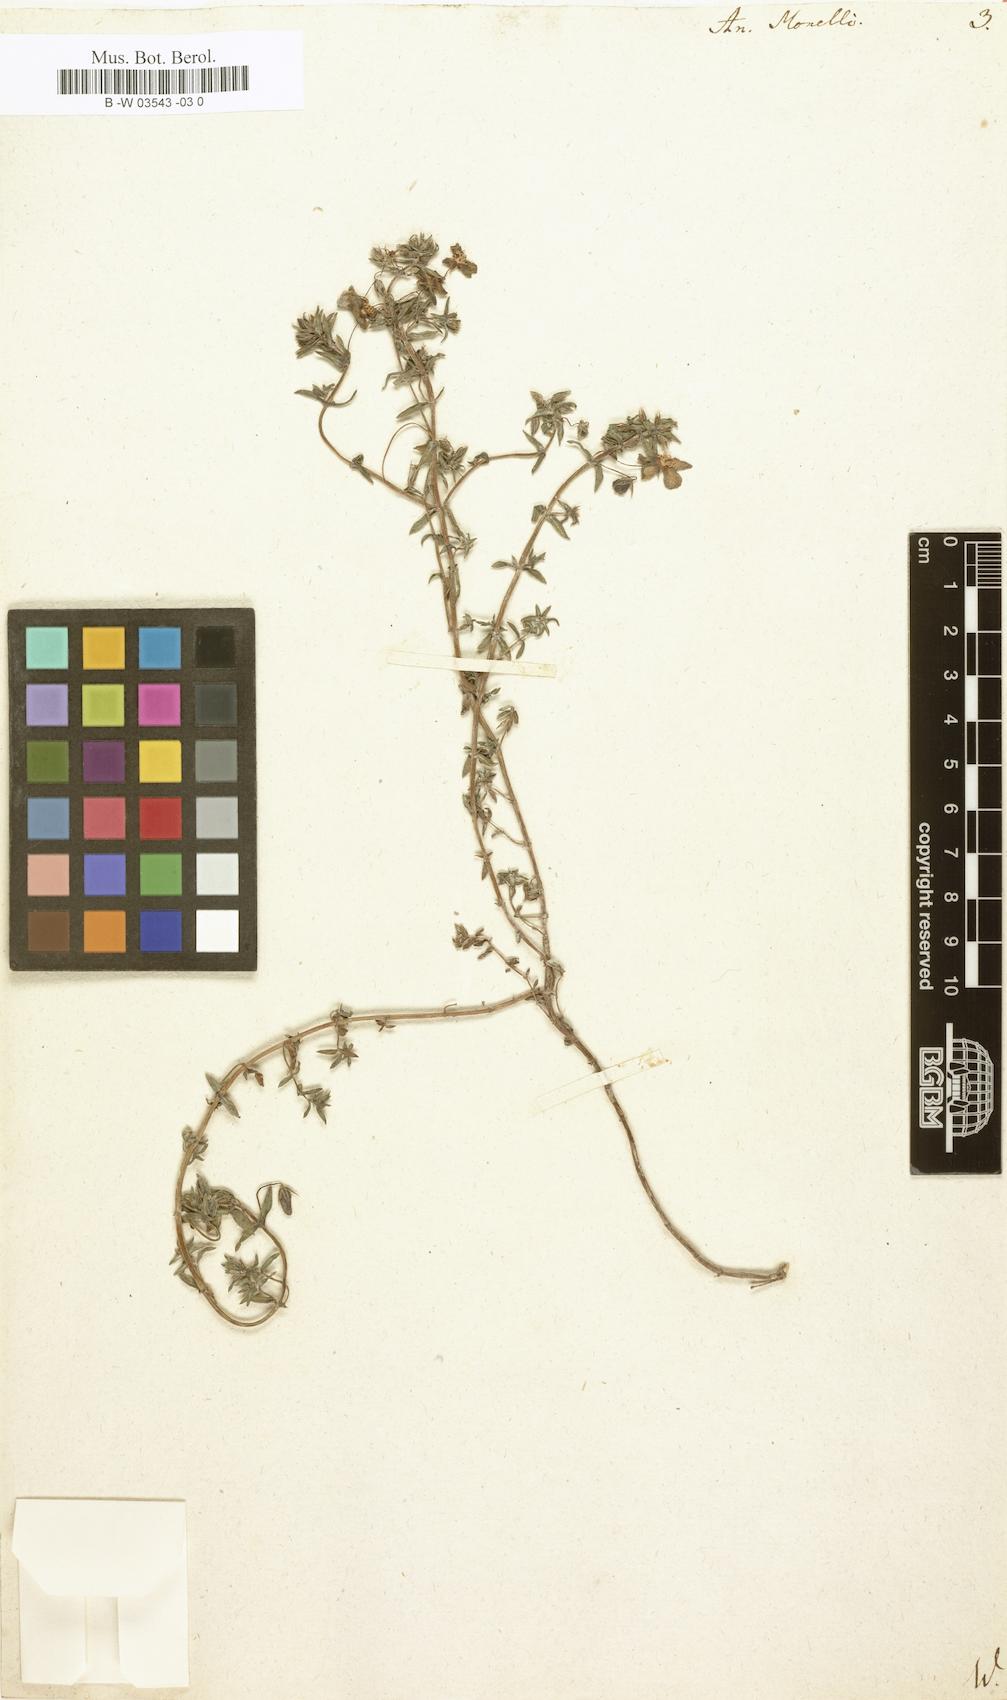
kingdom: Plantae
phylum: Tracheophyta
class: Magnoliopsida
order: Ericales
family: Primulaceae
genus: Lysimachia
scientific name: Lysimachia monelli
